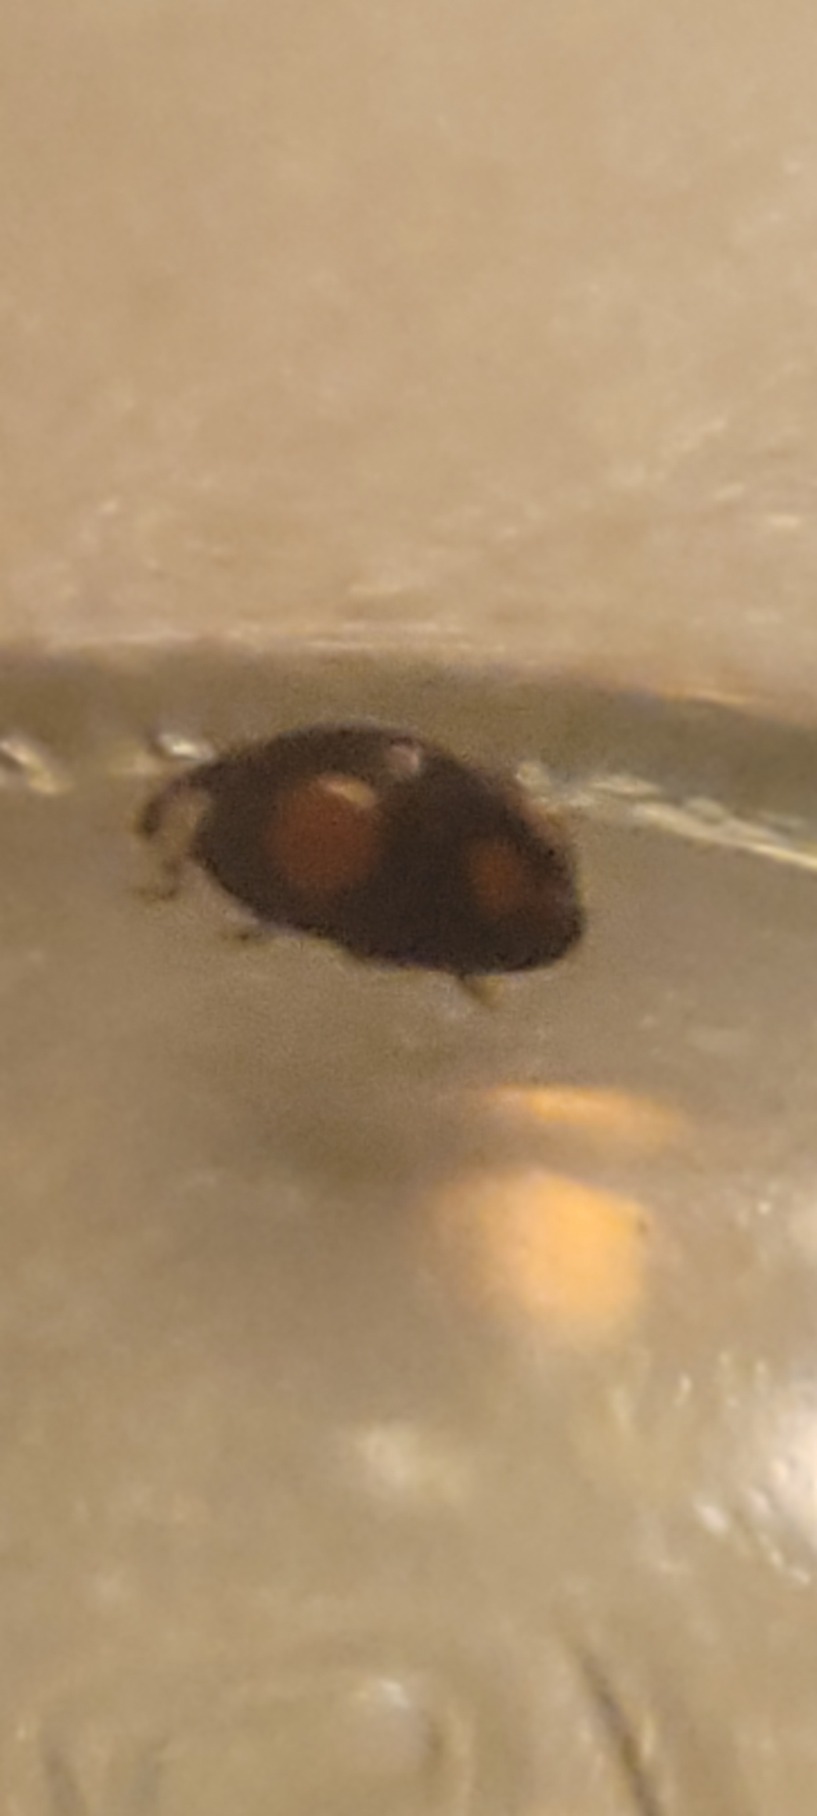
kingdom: Animalia
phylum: Arthropoda
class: Insecta
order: Coleoptera
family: Coccinellidae
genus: Harmonia
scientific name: Harmonia axyridis
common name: Harlekinmariehøne
